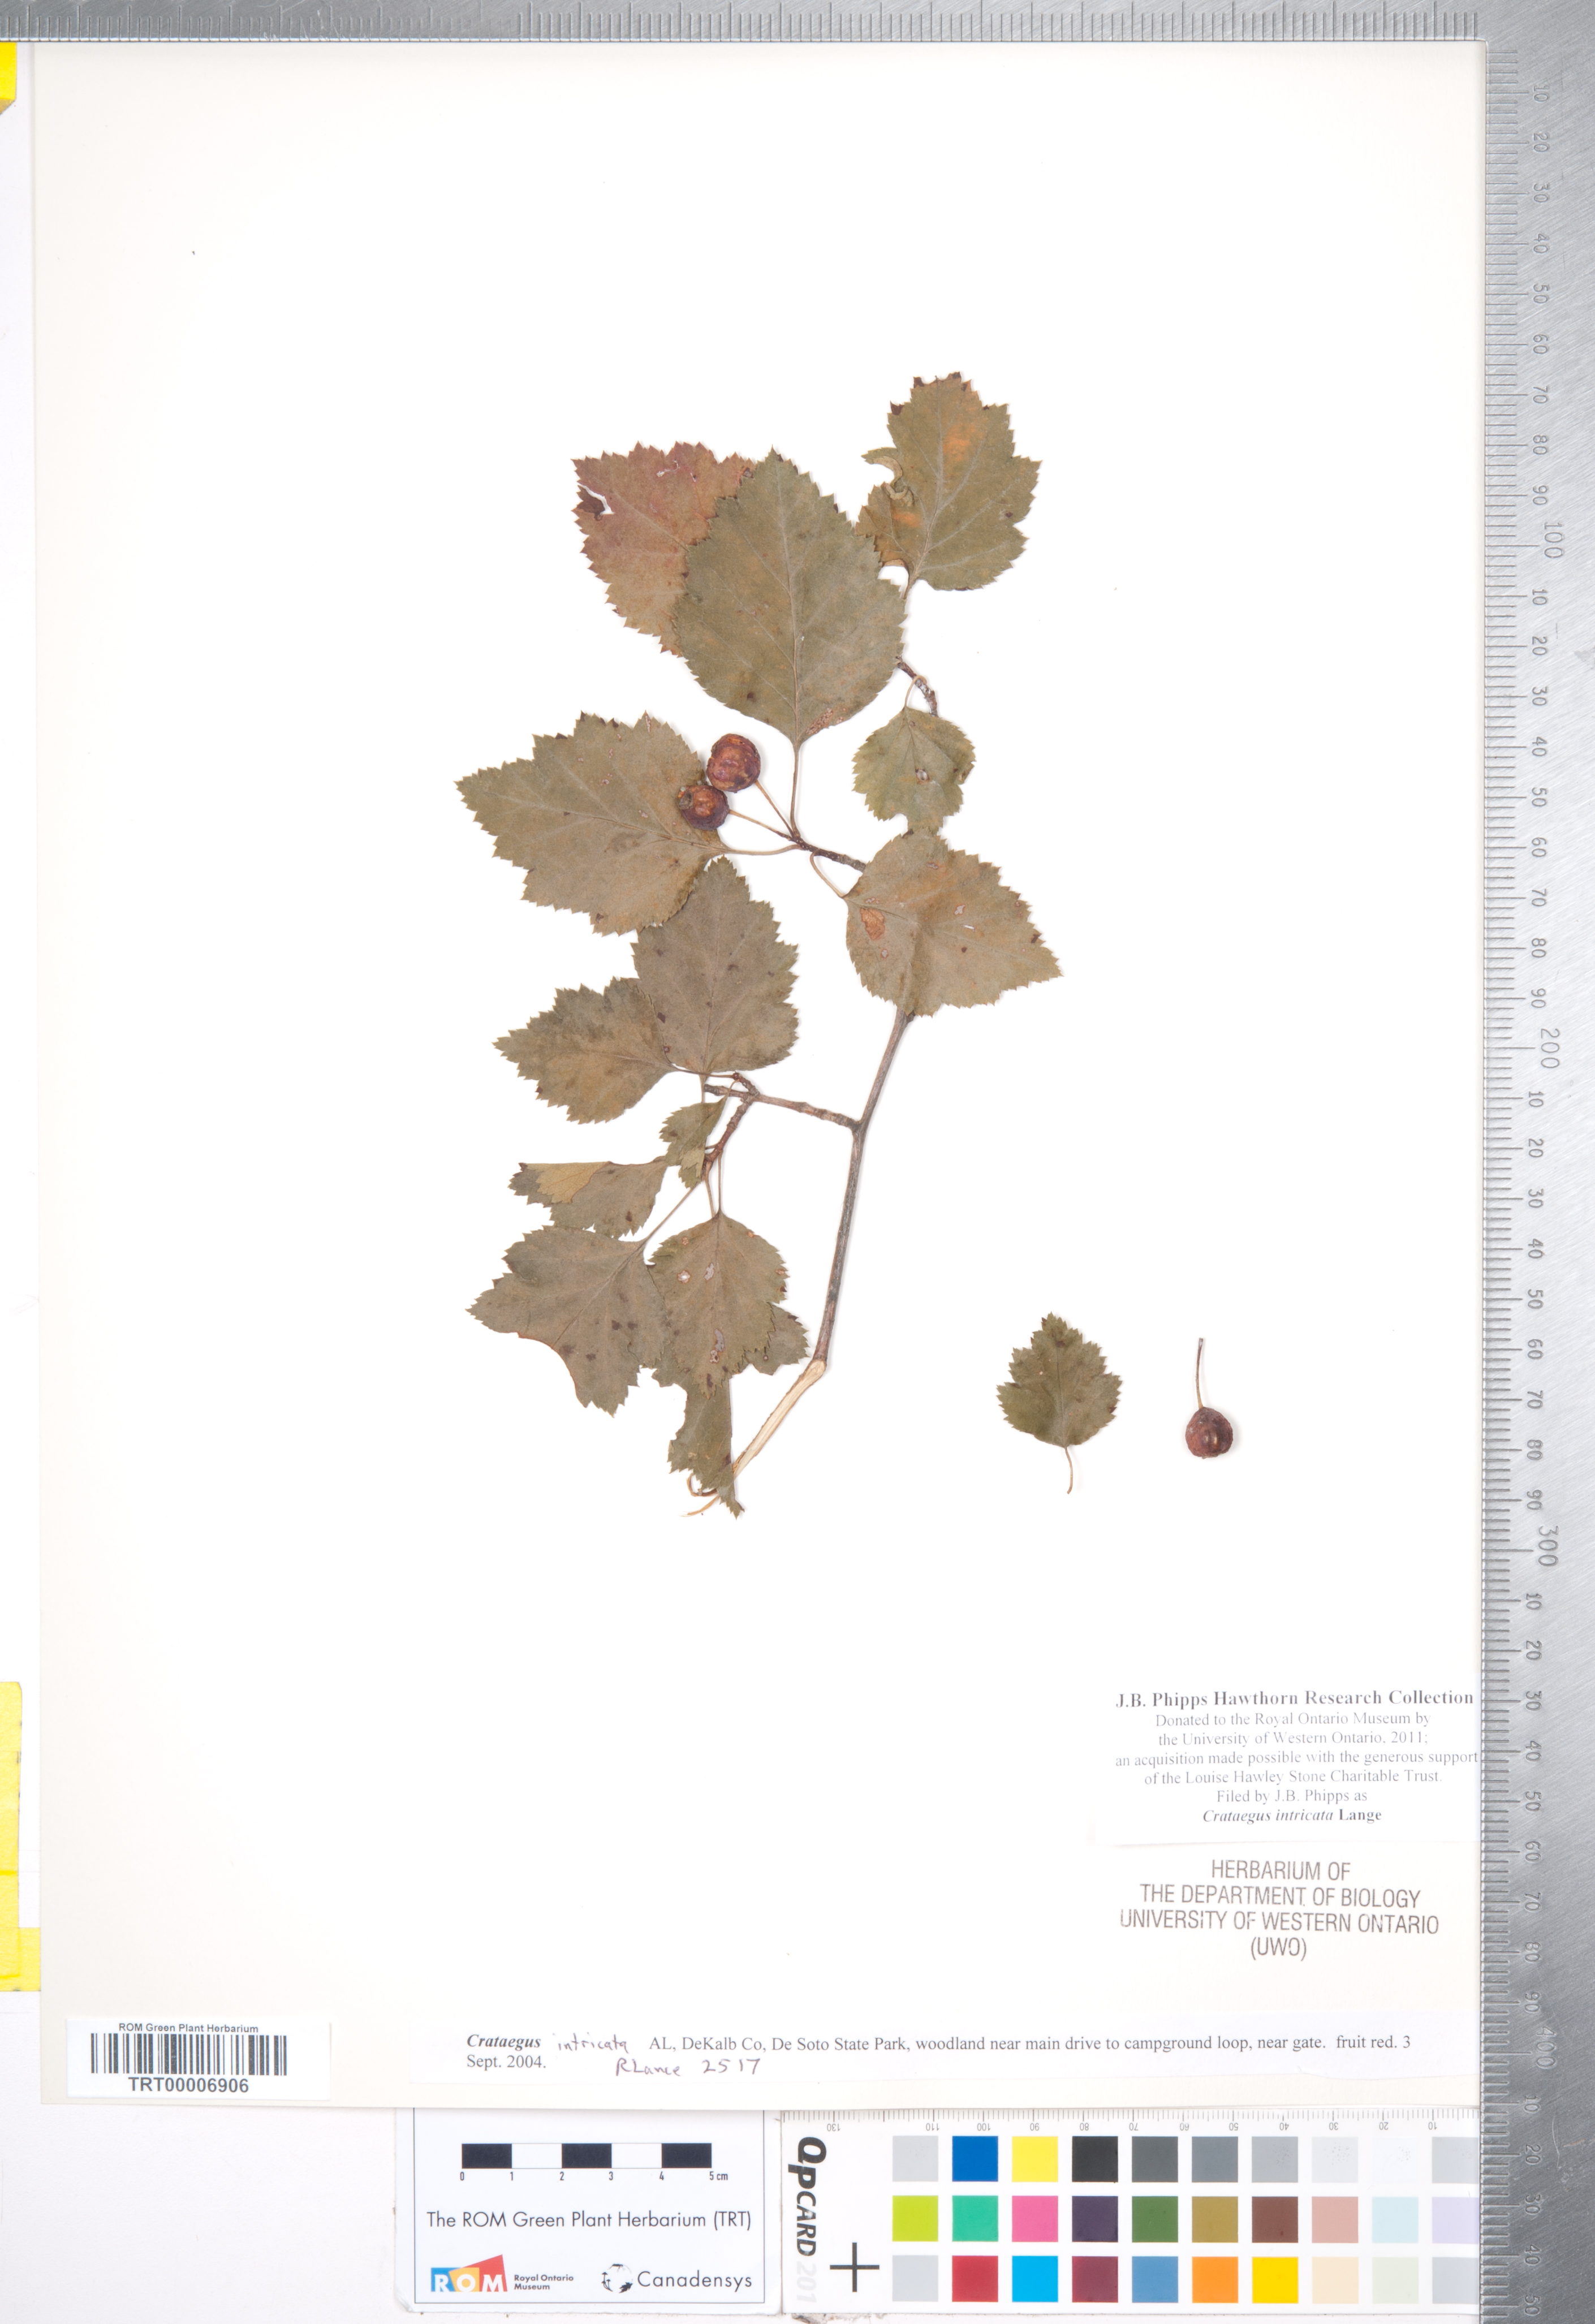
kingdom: Plantae
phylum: Tracheophyta
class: Magnoliopsida
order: Rosales
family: Rosaceae
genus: Crataegus
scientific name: Crataegus intricata
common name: Biltmore hawthorn
